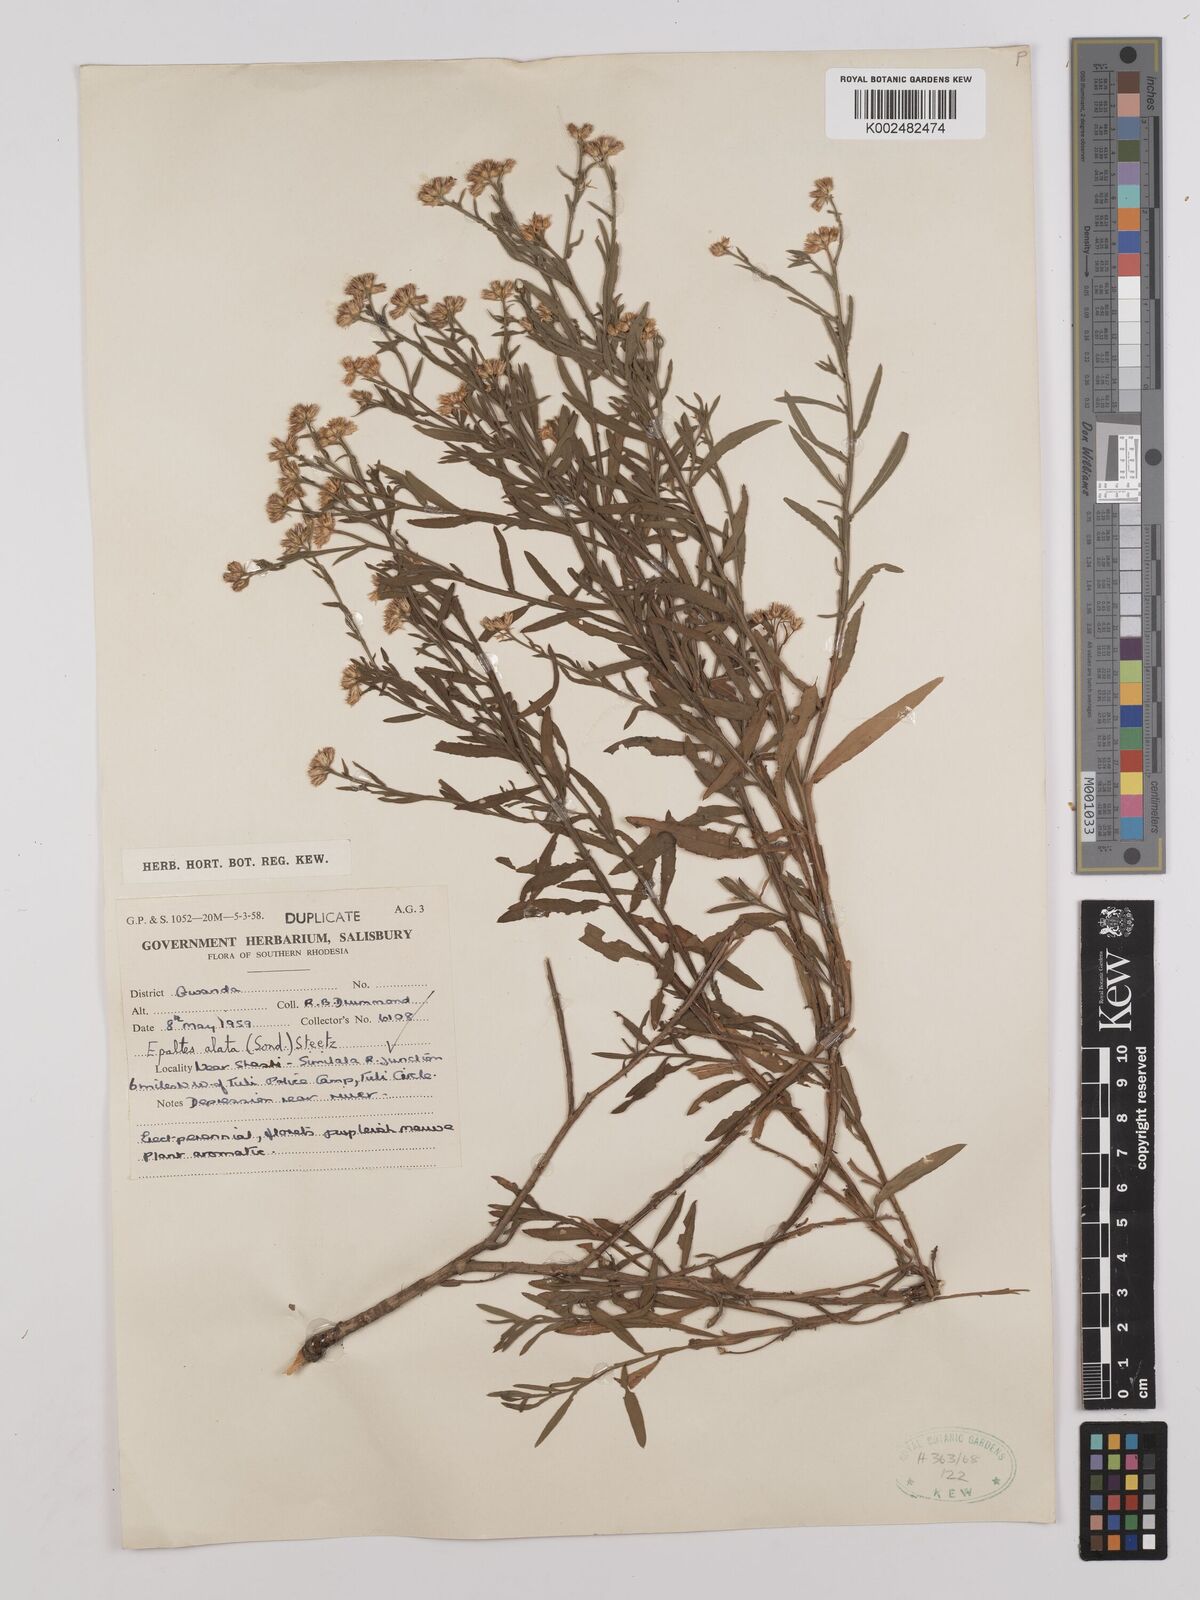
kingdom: Plantae
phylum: Tracheophyta
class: Magnoliopsida
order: Asterales
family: Asteraceae
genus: Litogyne
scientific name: Litogyne gariepina
